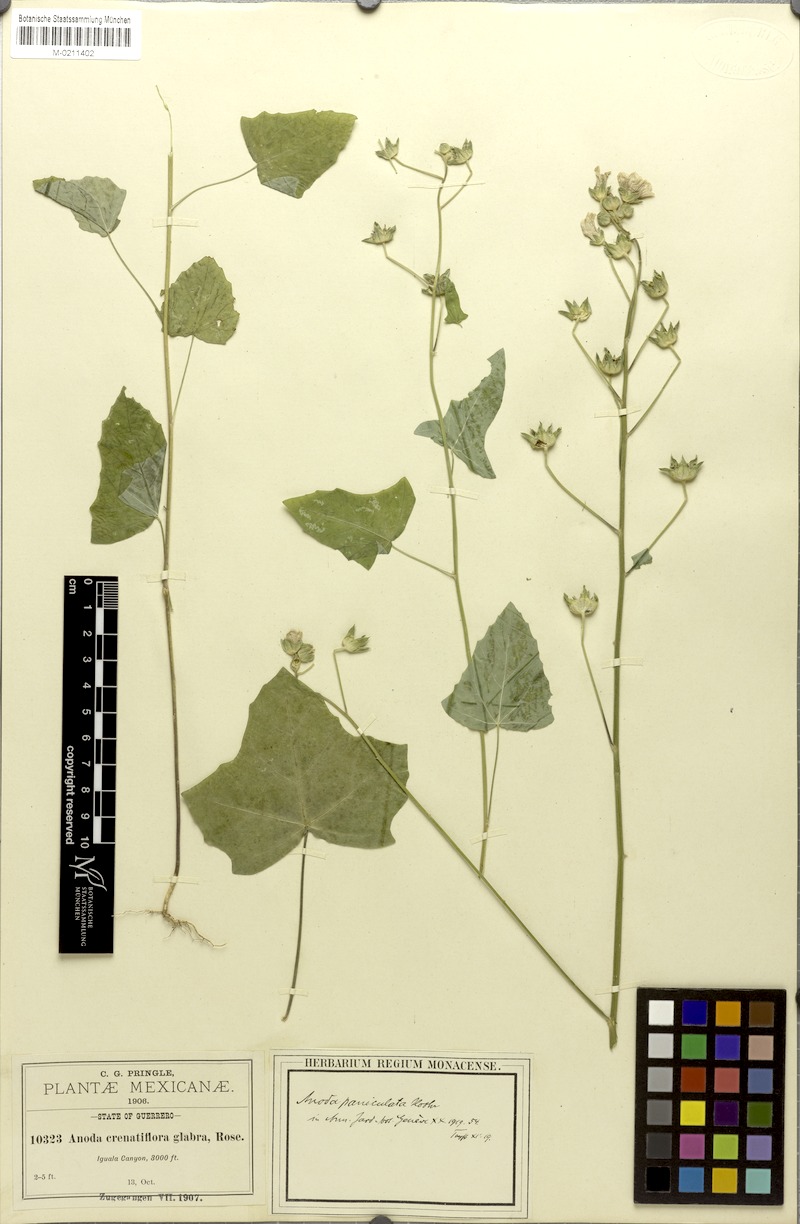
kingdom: Plantae
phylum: Tracheophyta
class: Magnoliopsida
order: Malvales
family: Malvaceae
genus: Anoda
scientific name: Anoda paniculata
